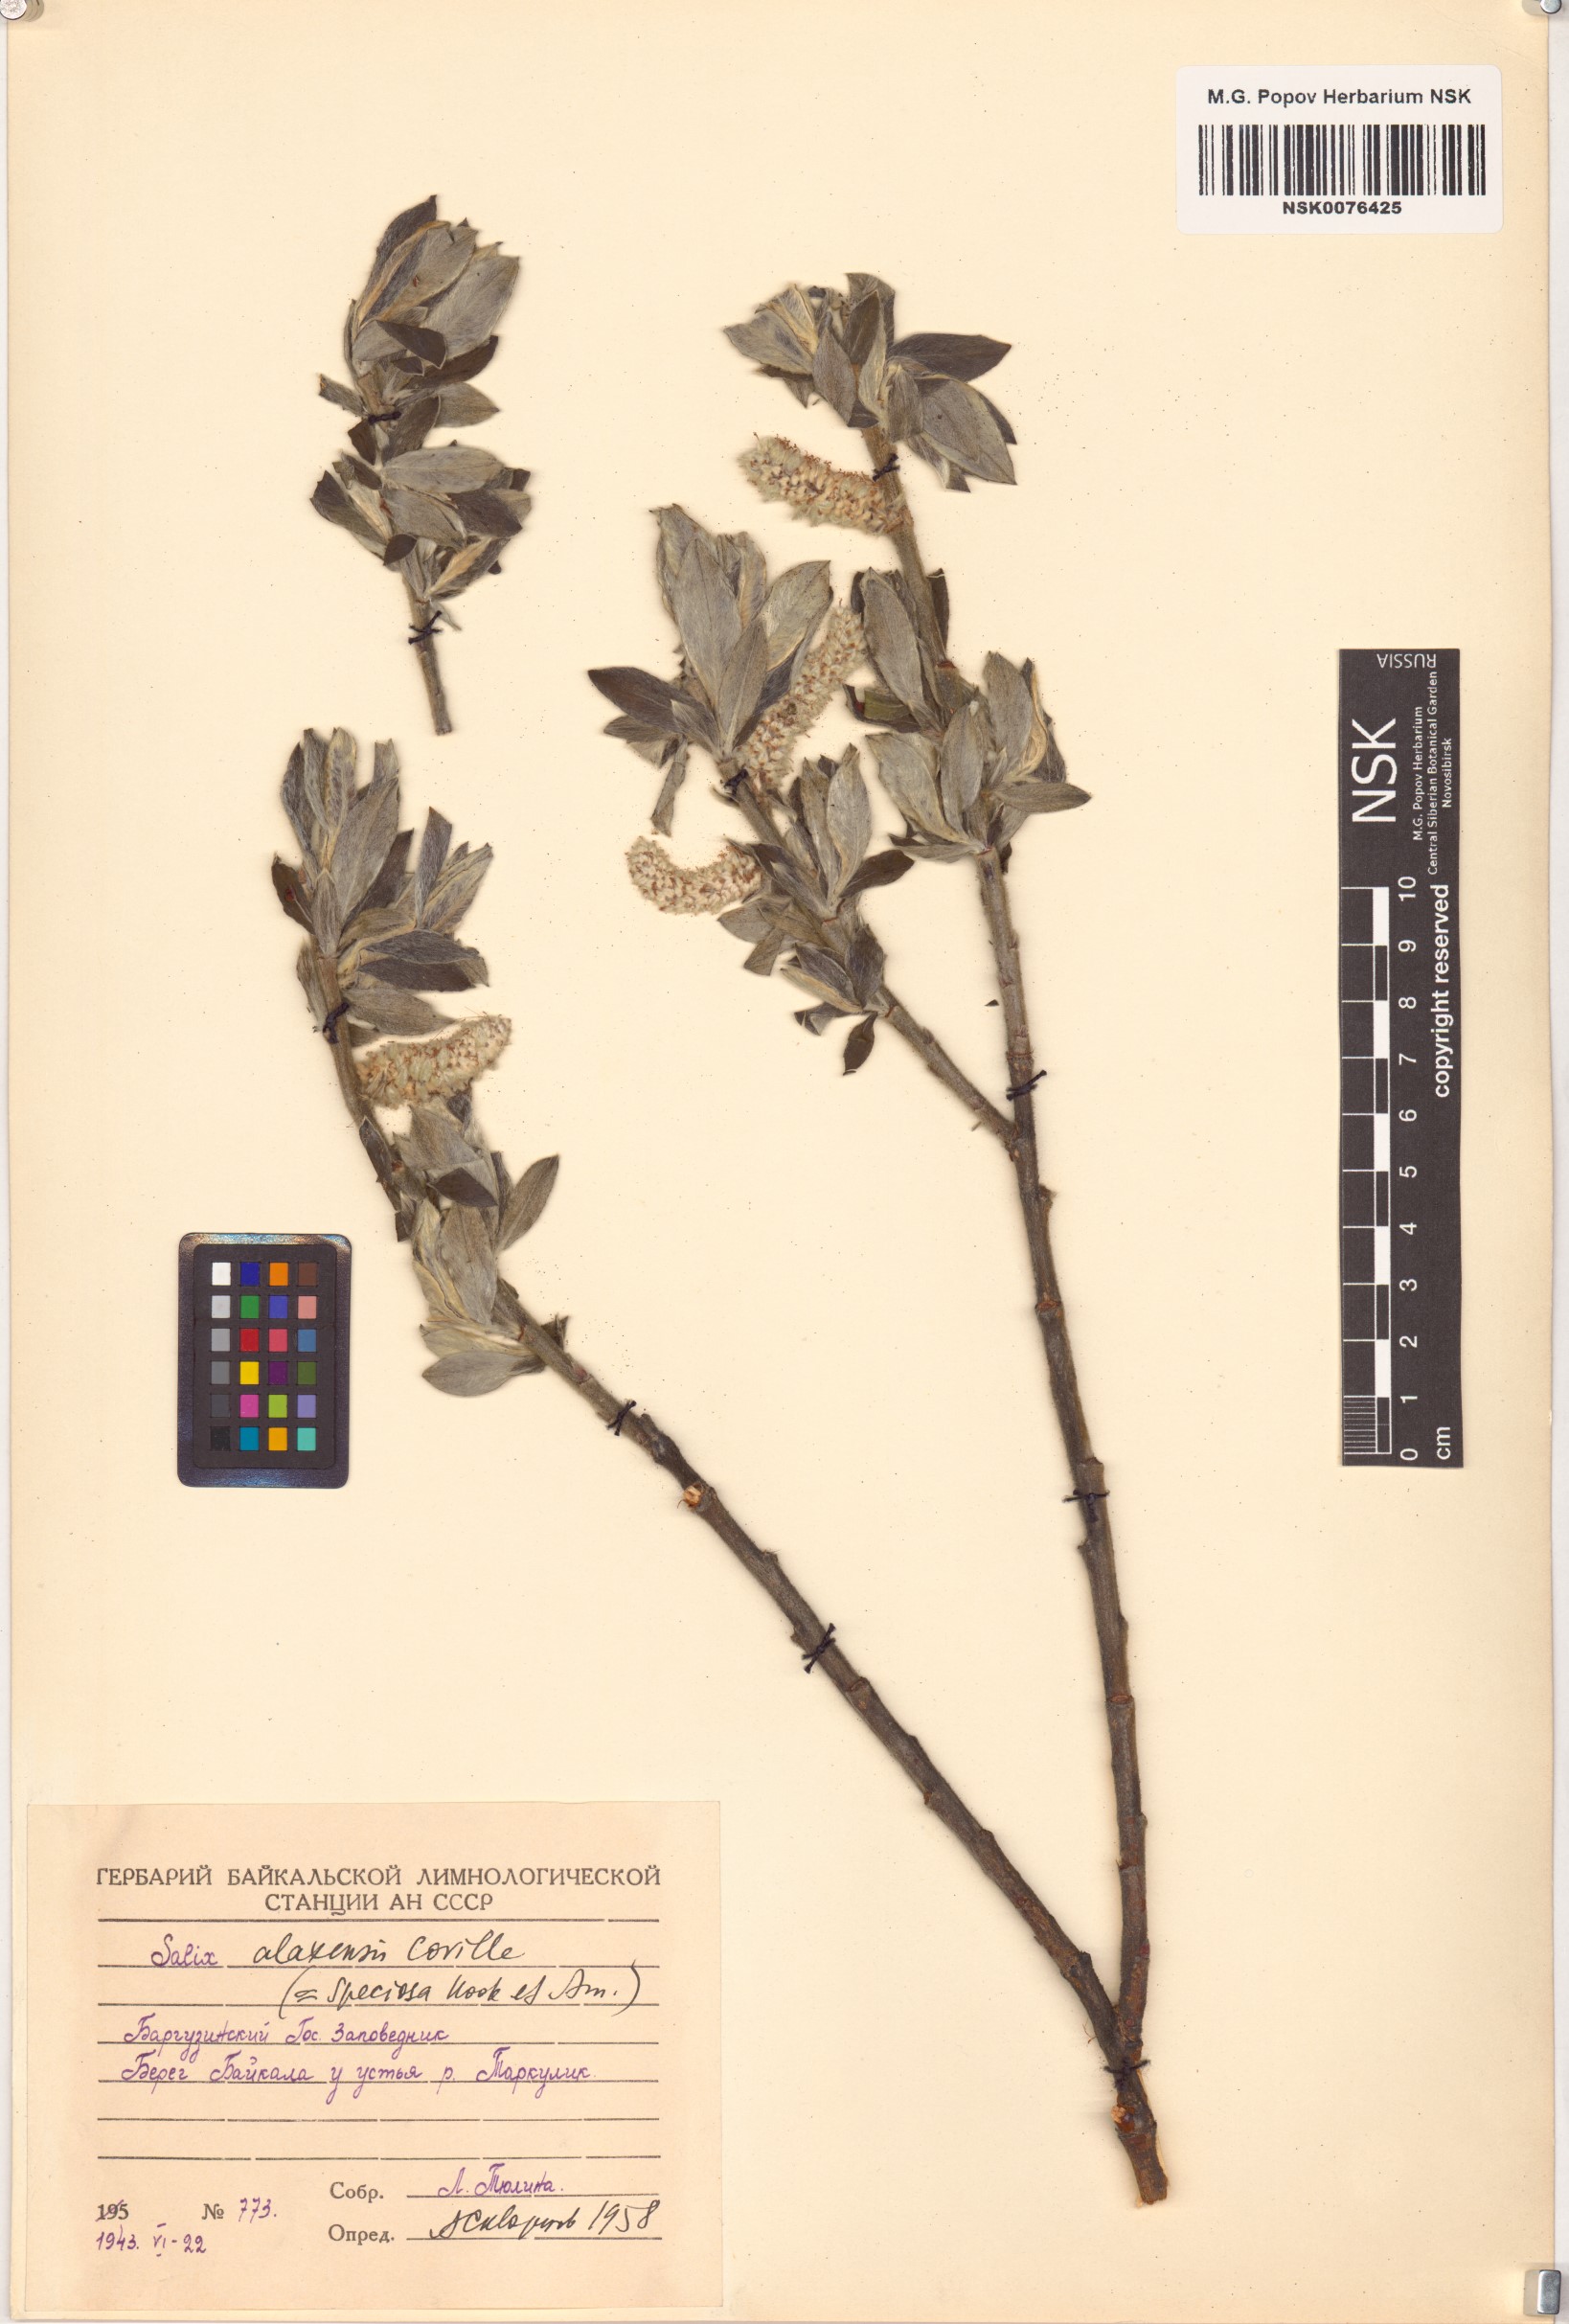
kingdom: Plantae
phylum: Tracheophyta
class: Magnoliopsida
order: Malpighiales
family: Salicaceae
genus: Salix
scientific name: Salix alaxensis
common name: Feltleaf willow
